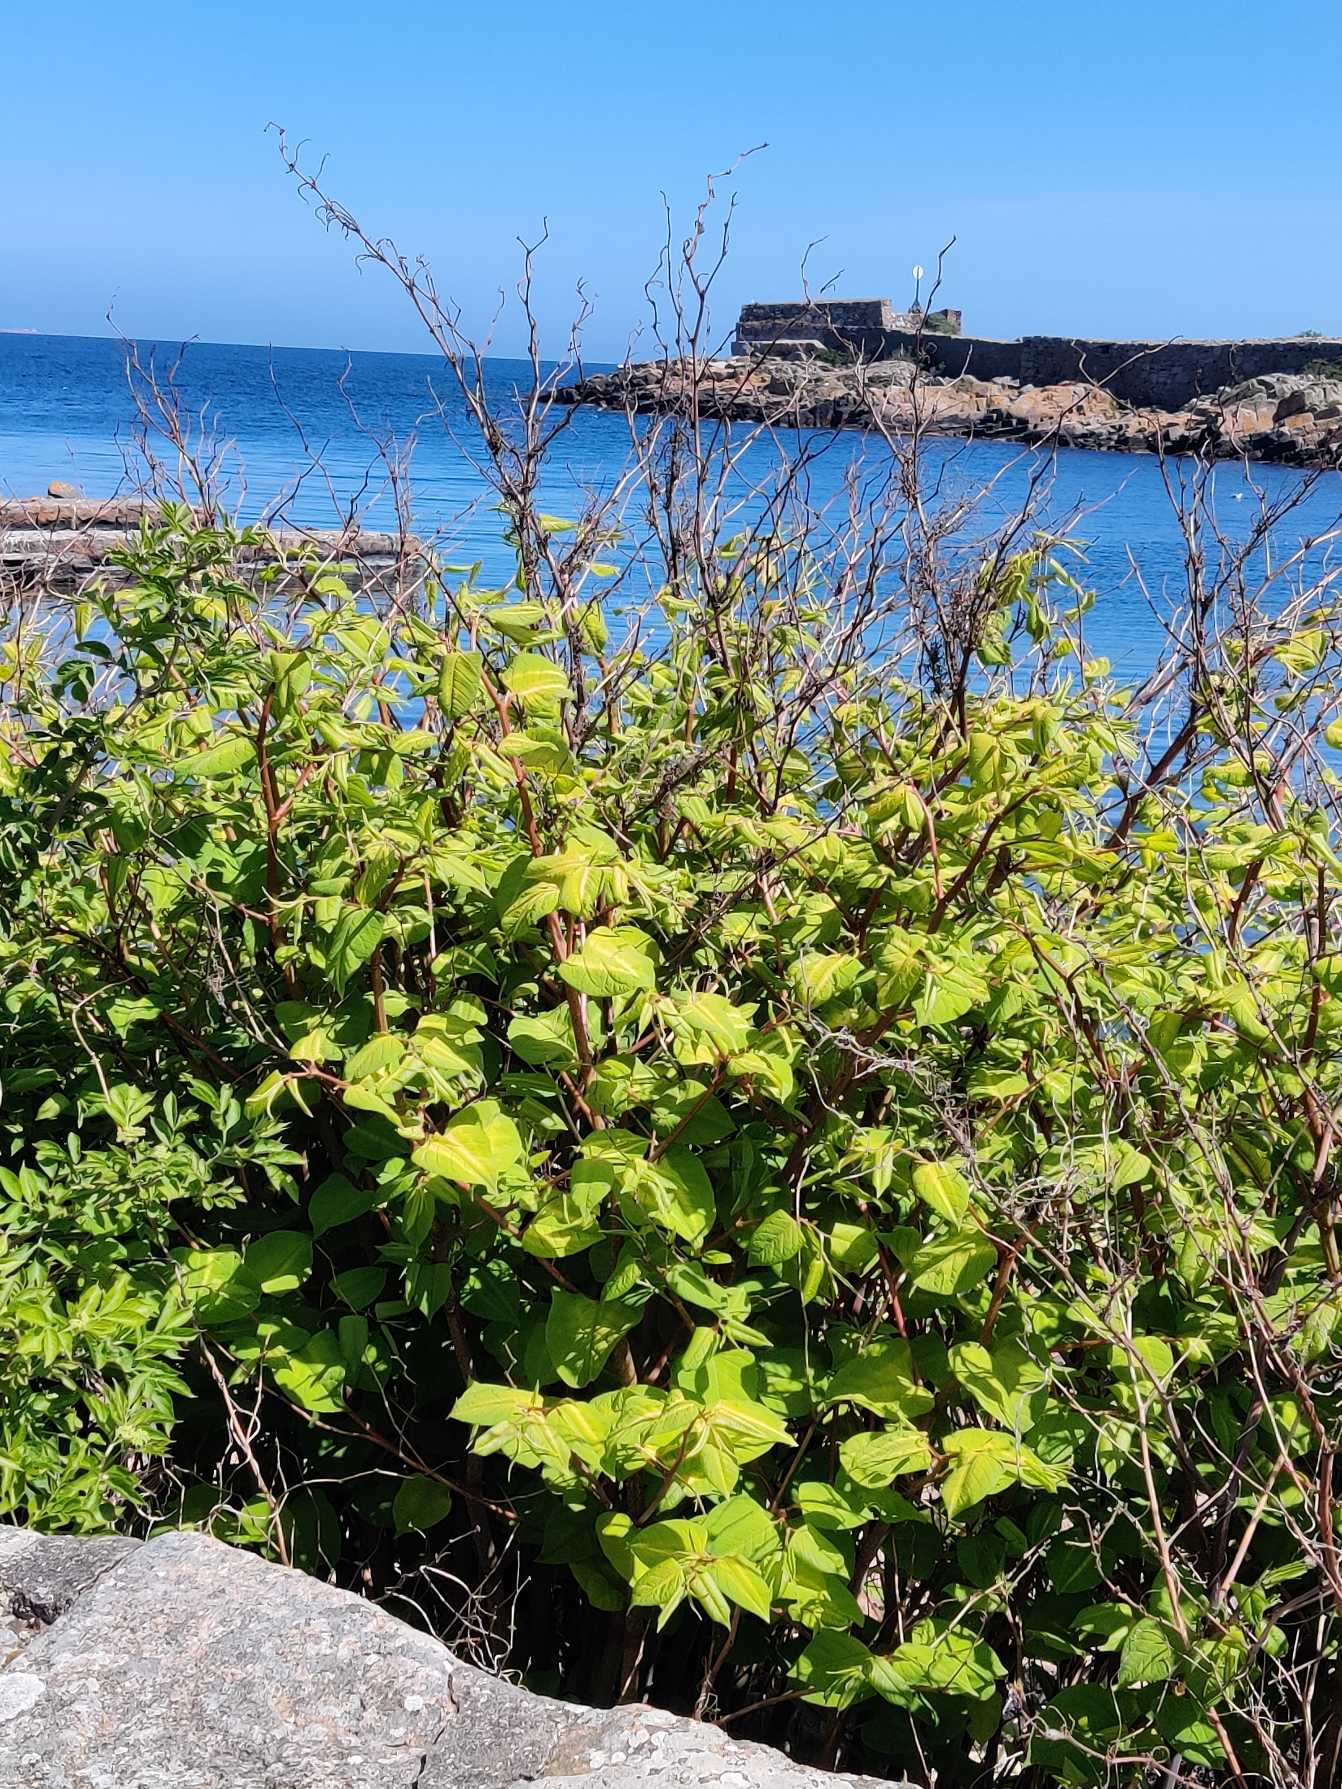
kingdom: Plantae
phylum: Tracheophyta
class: Magnoliopsida
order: Caryophyllales
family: Polygonaceae
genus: Reynoutria
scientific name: Reynoutria japonica
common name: Japan-pileurt
